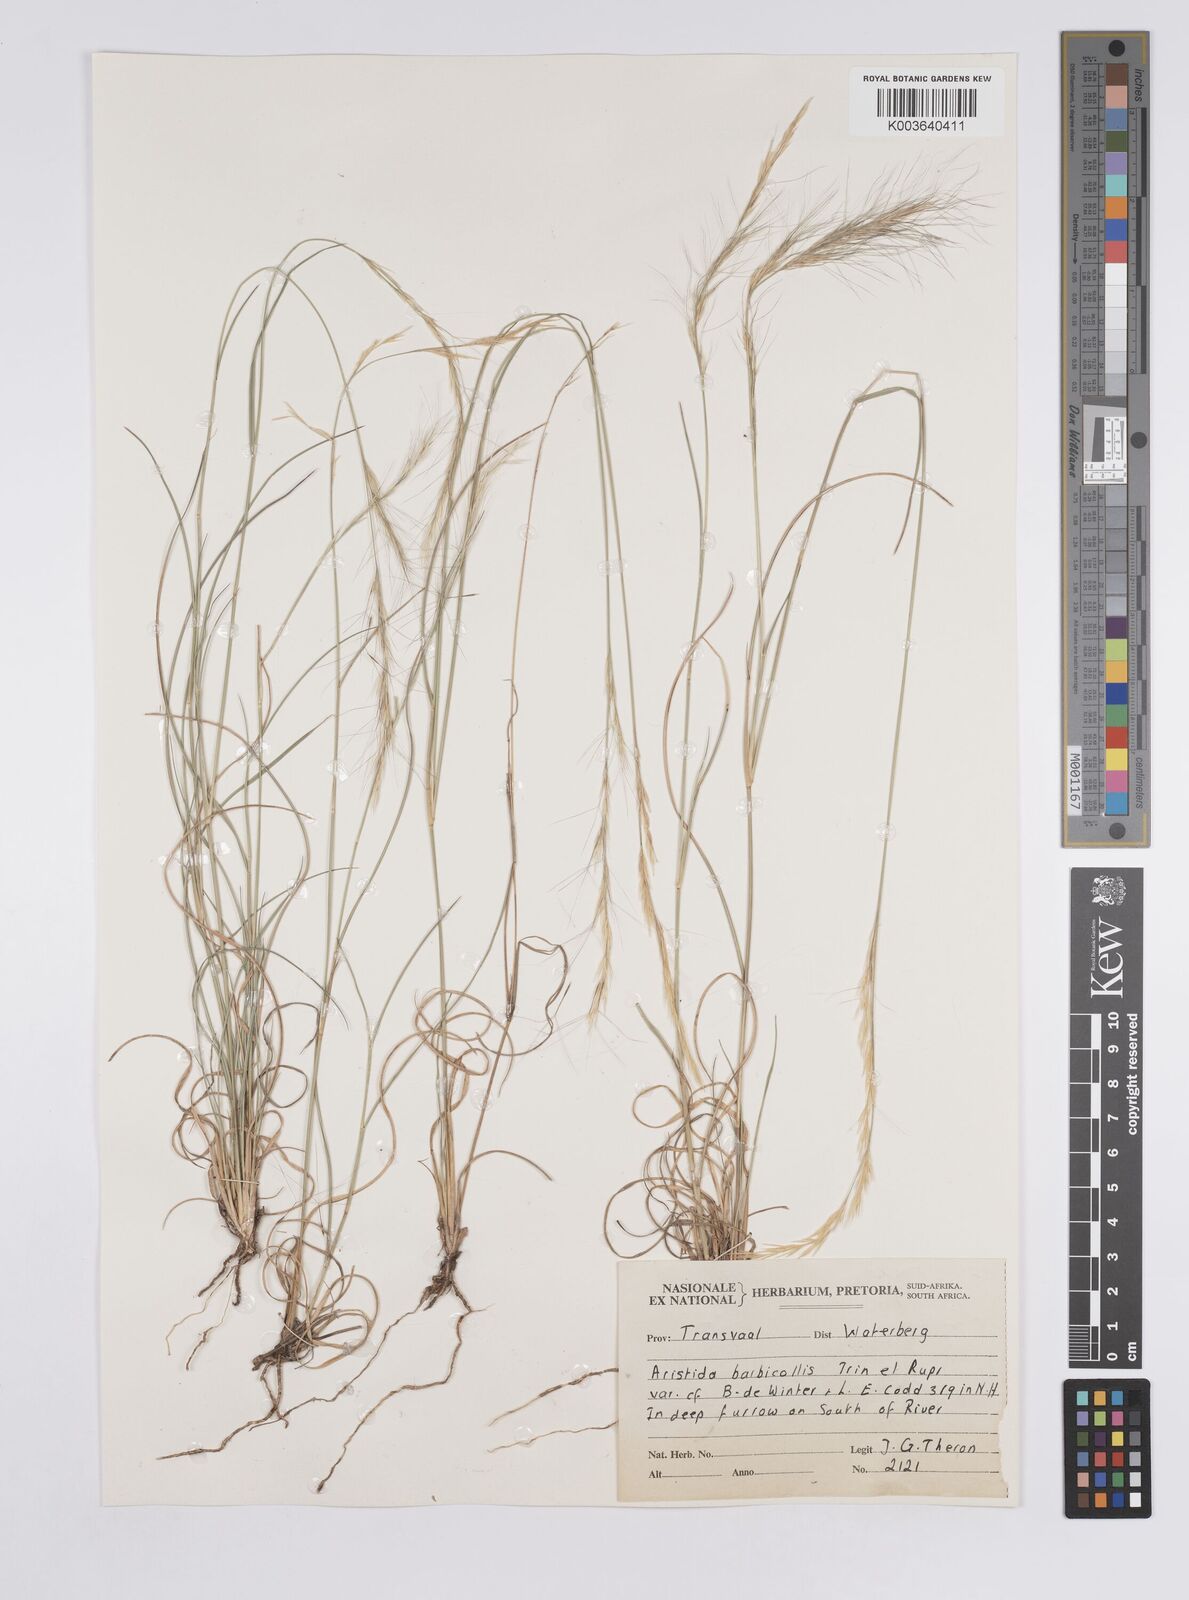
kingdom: Plantae
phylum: Tracheophyta
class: Liliopsida
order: Poales
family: Poaceae
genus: Aristida
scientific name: Aristida barbicollis
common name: Spreading prickle grass
